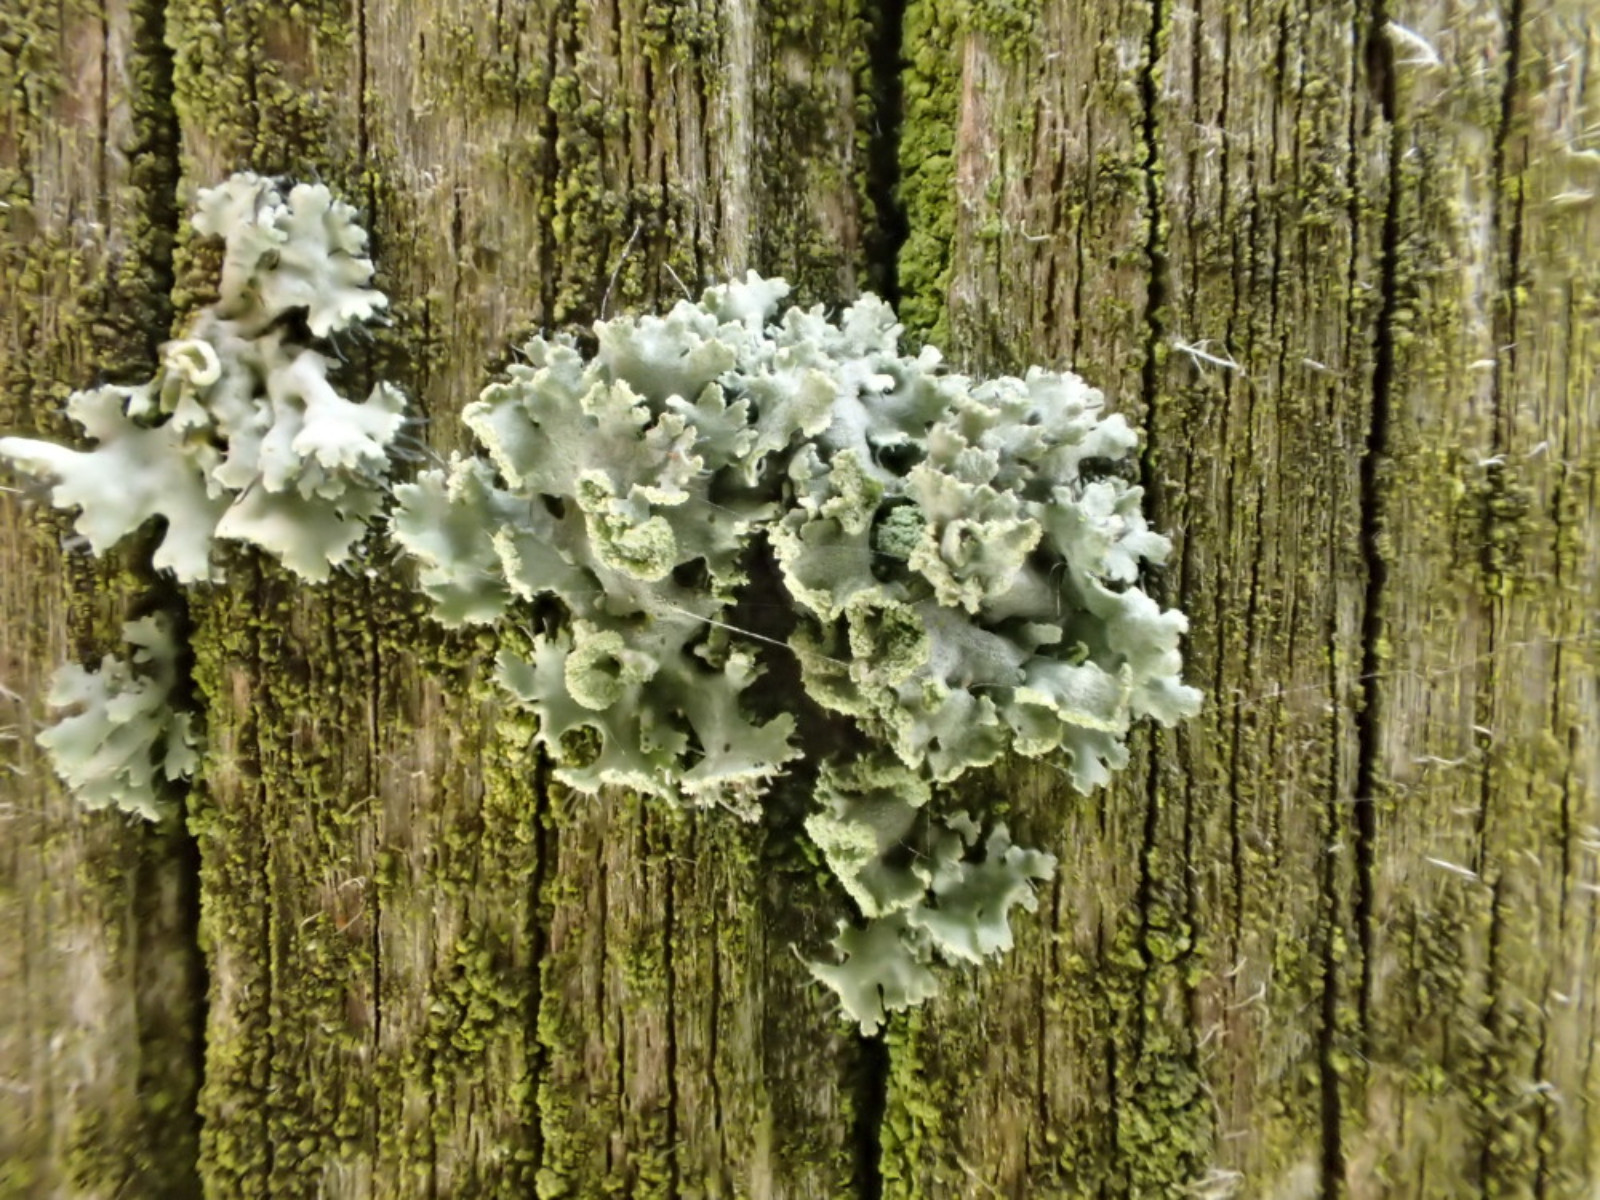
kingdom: Fungi
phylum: Ascomycota
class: Lecanoromycetes
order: Caliciales
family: Physciaceae
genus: Physcia
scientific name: Physcia tenella
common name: spæd rosetlav
